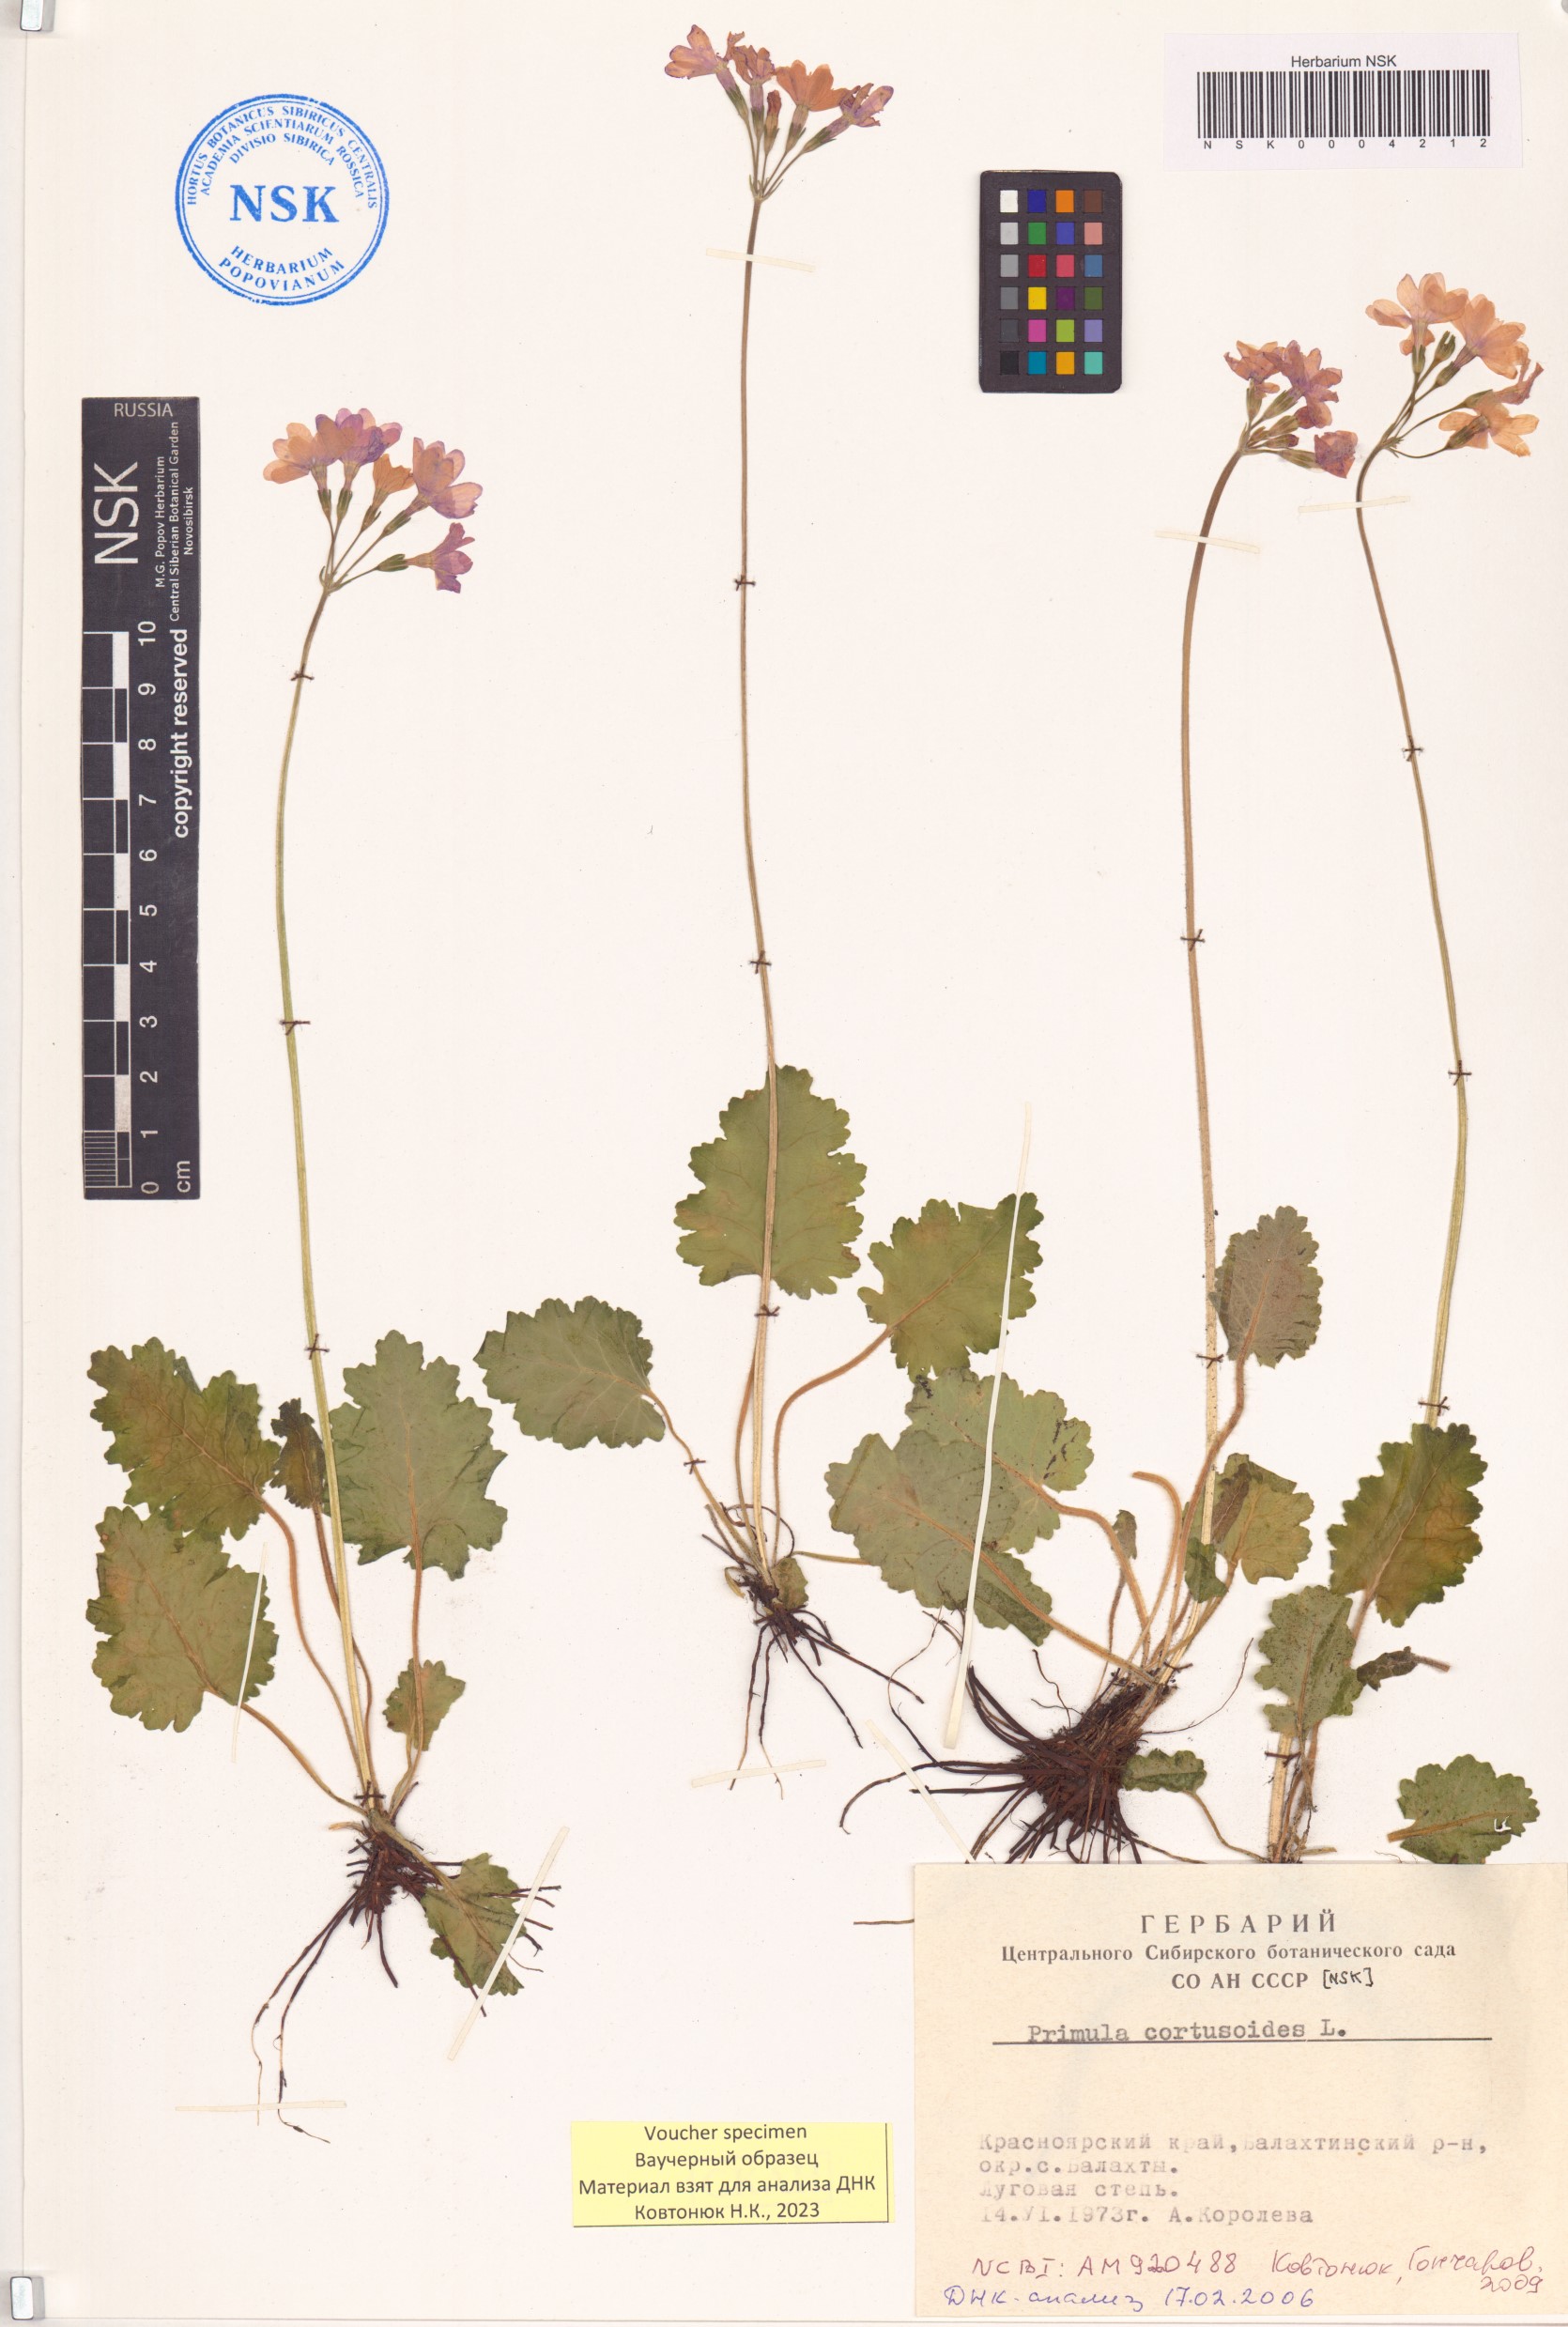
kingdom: Plantae
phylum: Tracheophyta
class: Magnoliopsida
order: Ericales
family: Primulaceae
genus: Primula
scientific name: Primula cortusoides
